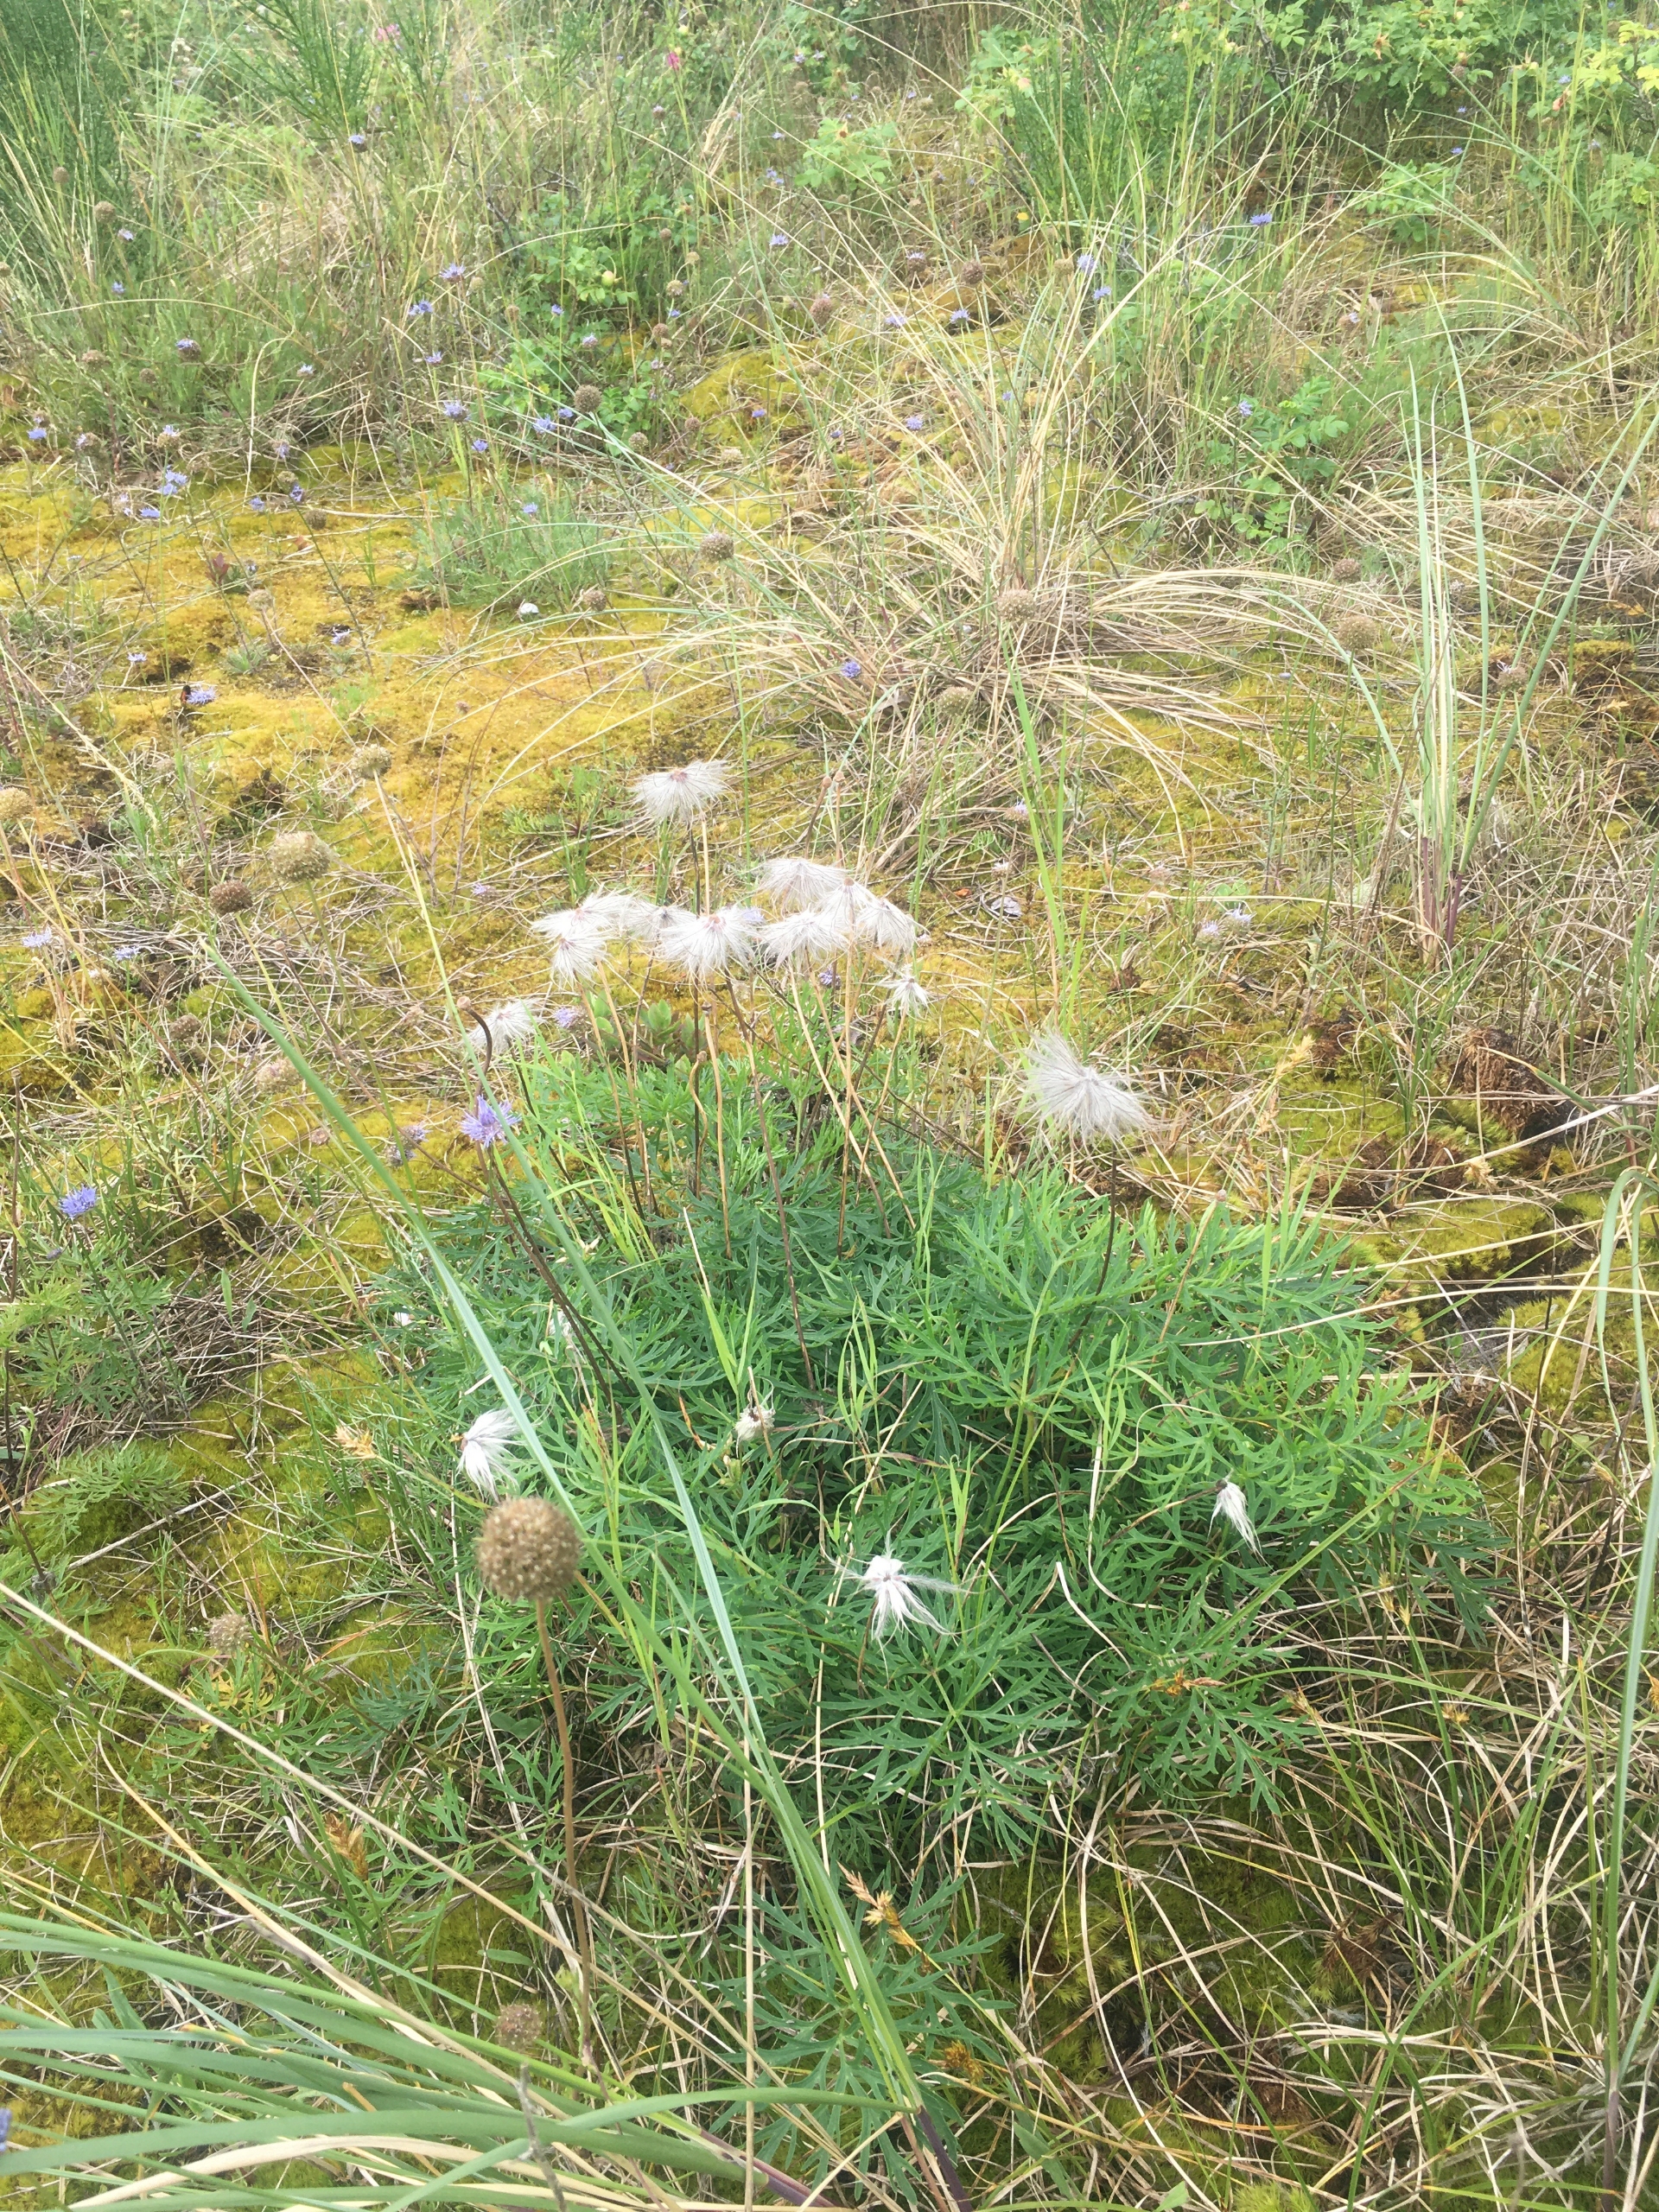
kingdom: Plantae
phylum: Tracheophyta
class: Magnoliopsida
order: Ranunculales
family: Ranunculaceae
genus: Pulsatilla
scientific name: Pulsatilla pratensis
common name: Nikkende kobjælde
